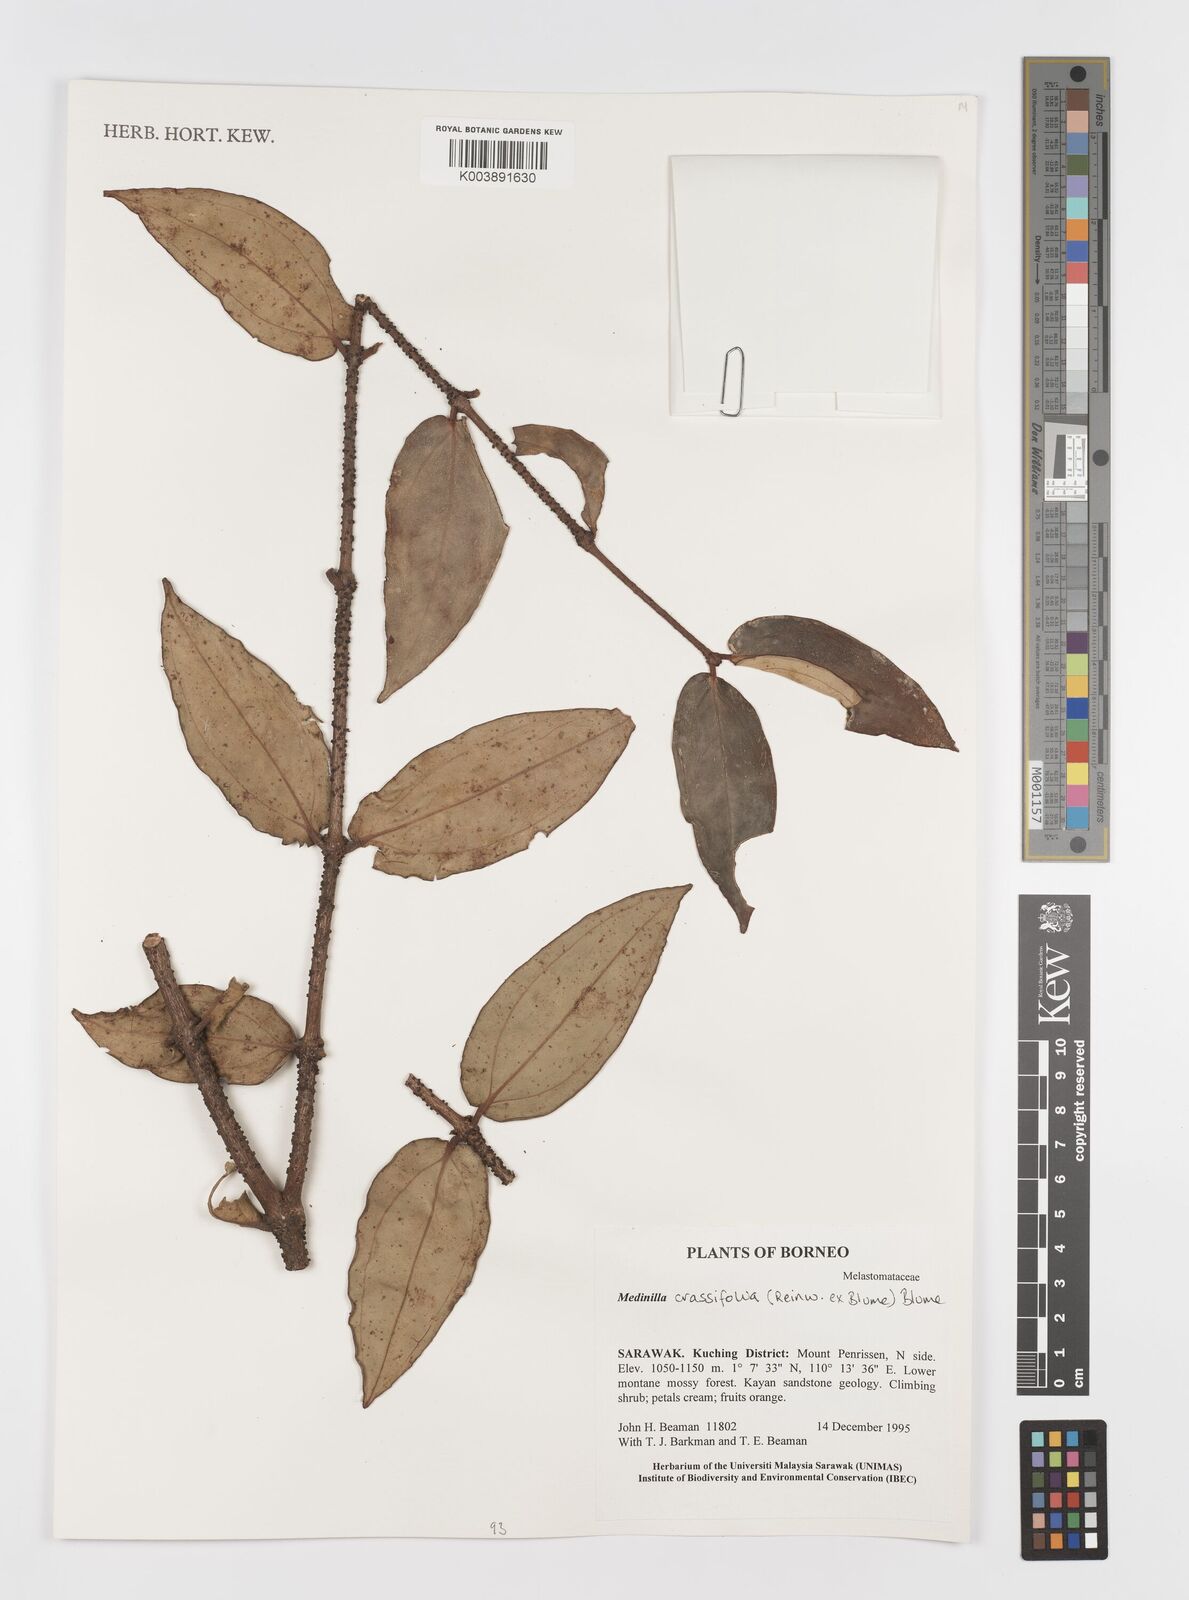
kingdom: Plantae
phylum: Tracheophyta
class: Magnoliopsida
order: Myrtales
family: Melastomataceae
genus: Medinilla
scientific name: Medinilla crassifolia
